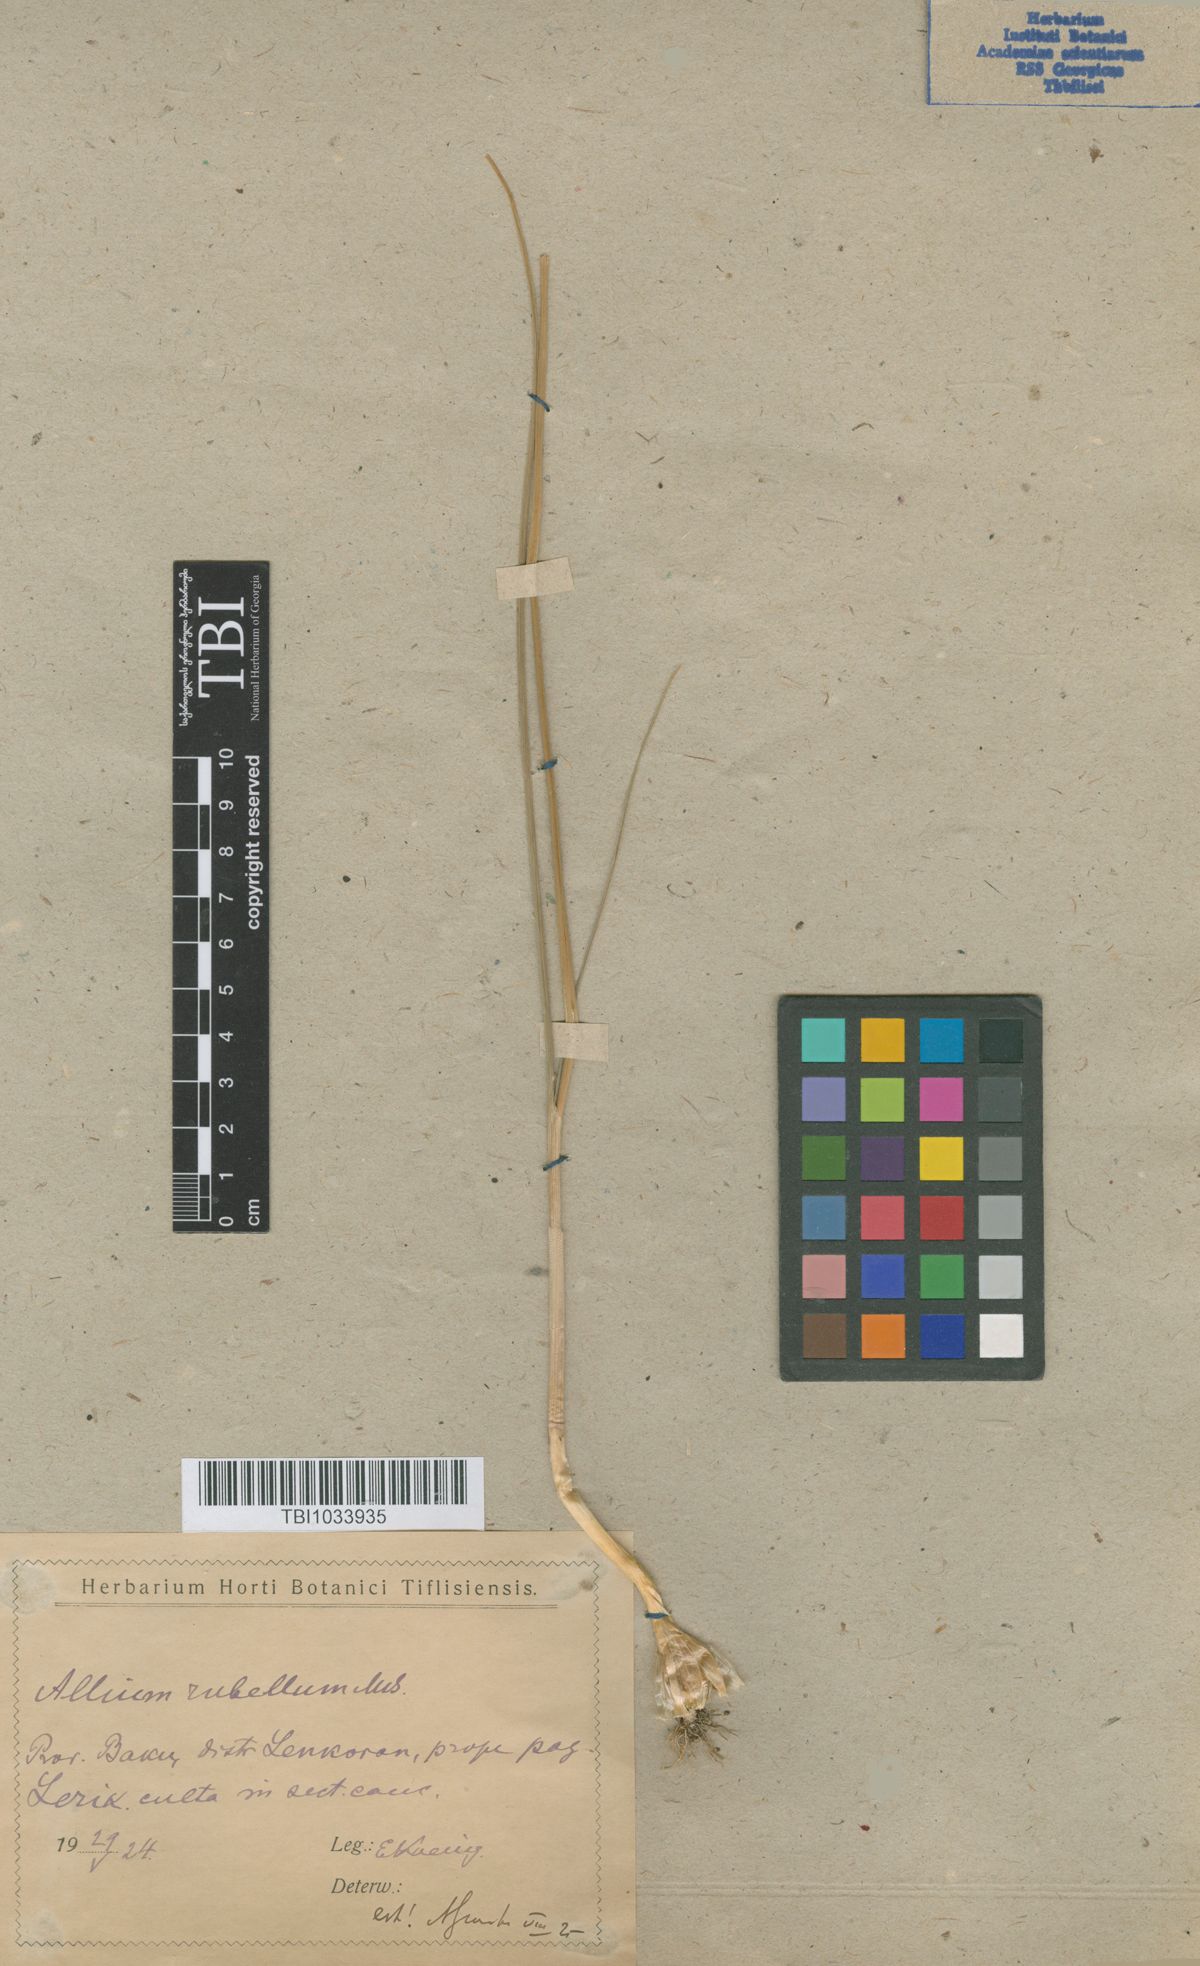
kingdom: Plantae
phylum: Tracheophyta
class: Liliopsida
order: Asparagales
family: Amaryllidaceae
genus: Allium
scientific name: Allium rubellum
